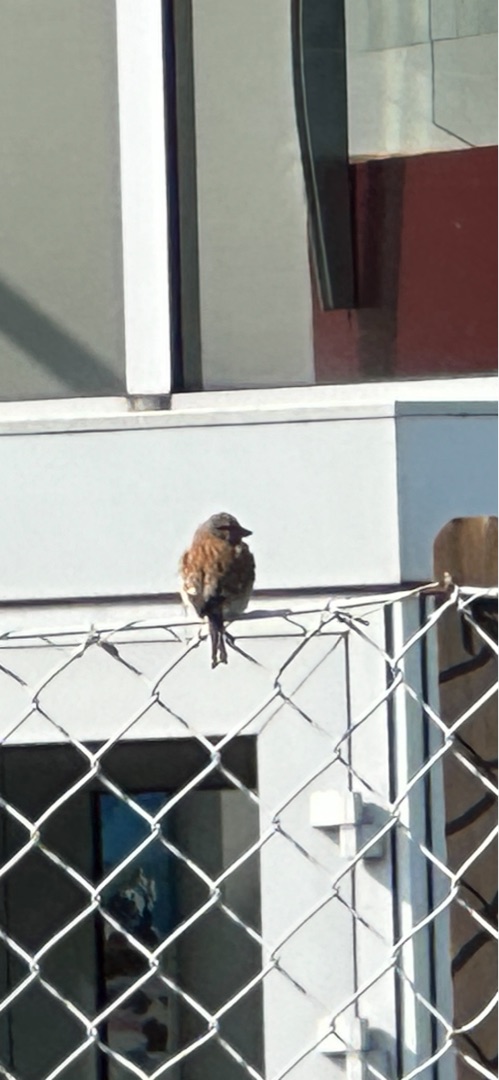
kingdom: Animalia
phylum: Chordata
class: Aves
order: Passeriformes
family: Fringillidae
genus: Linaria
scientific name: Linaria cannabina
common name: Tornirisk
